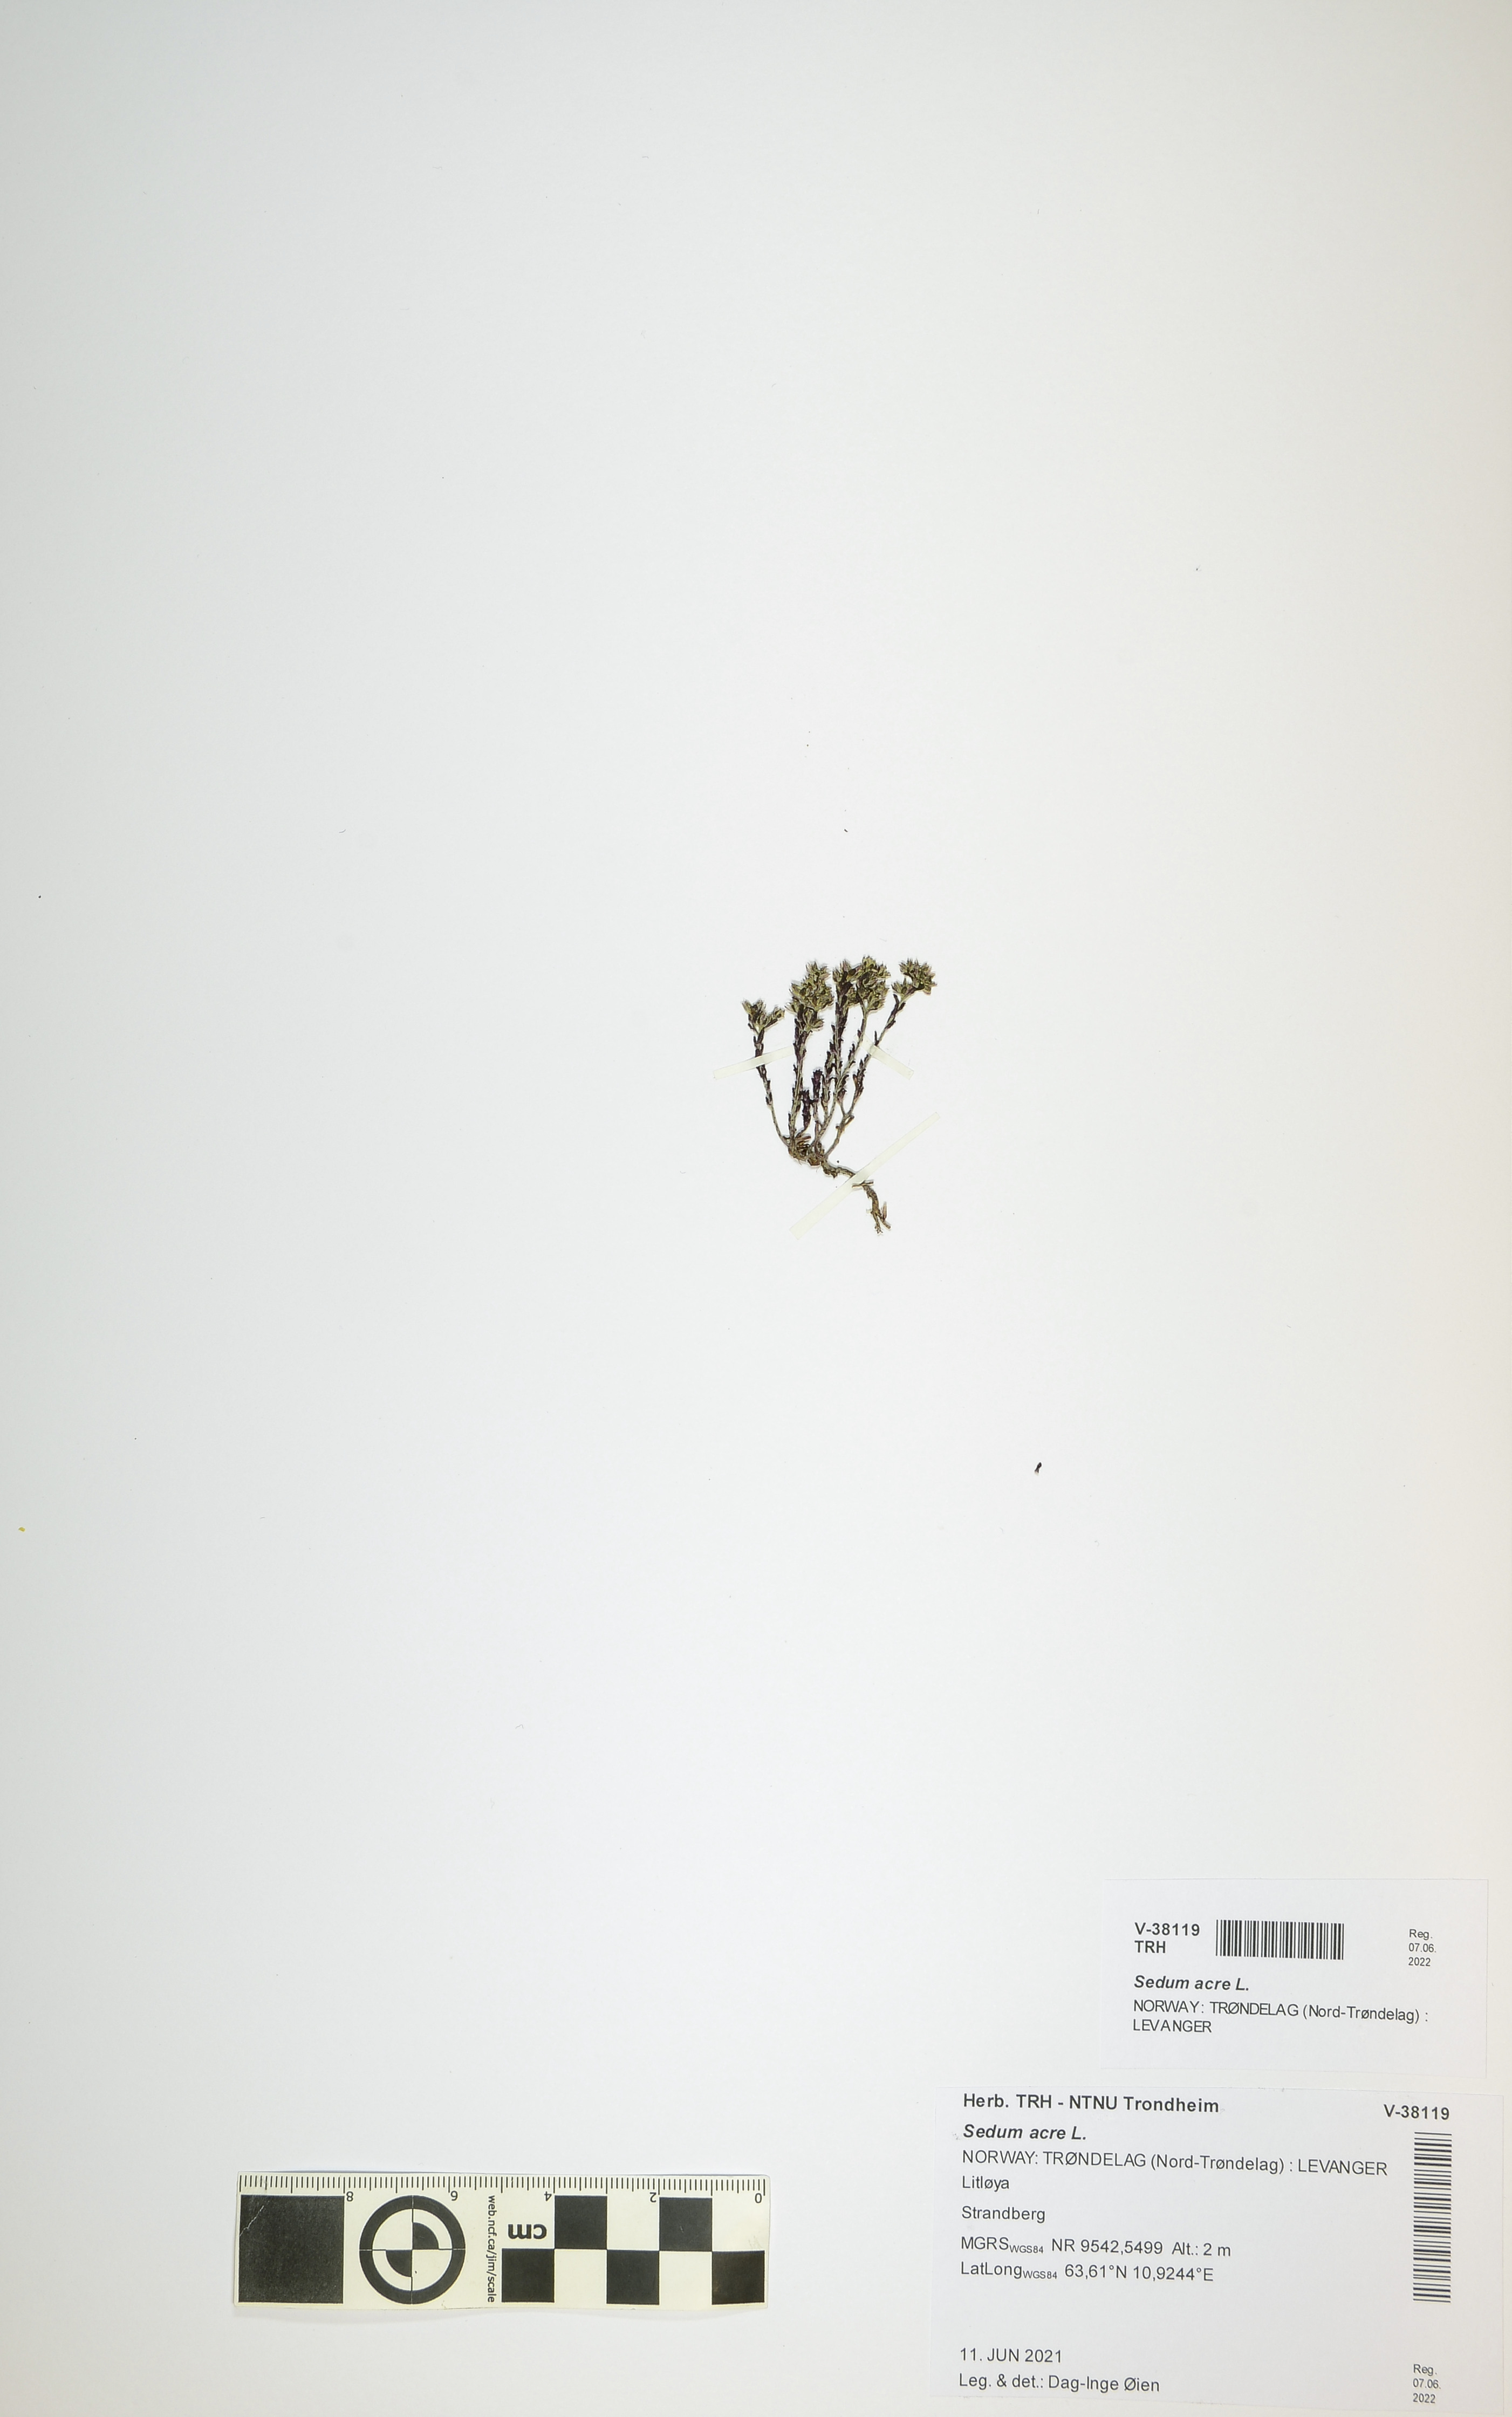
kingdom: Plantae
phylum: Tracheophyta
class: Magnoliopsida
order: Saxifragales
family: Crassulaceae
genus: Sedum
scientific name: Sedum acre
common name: Biting stonecrop
